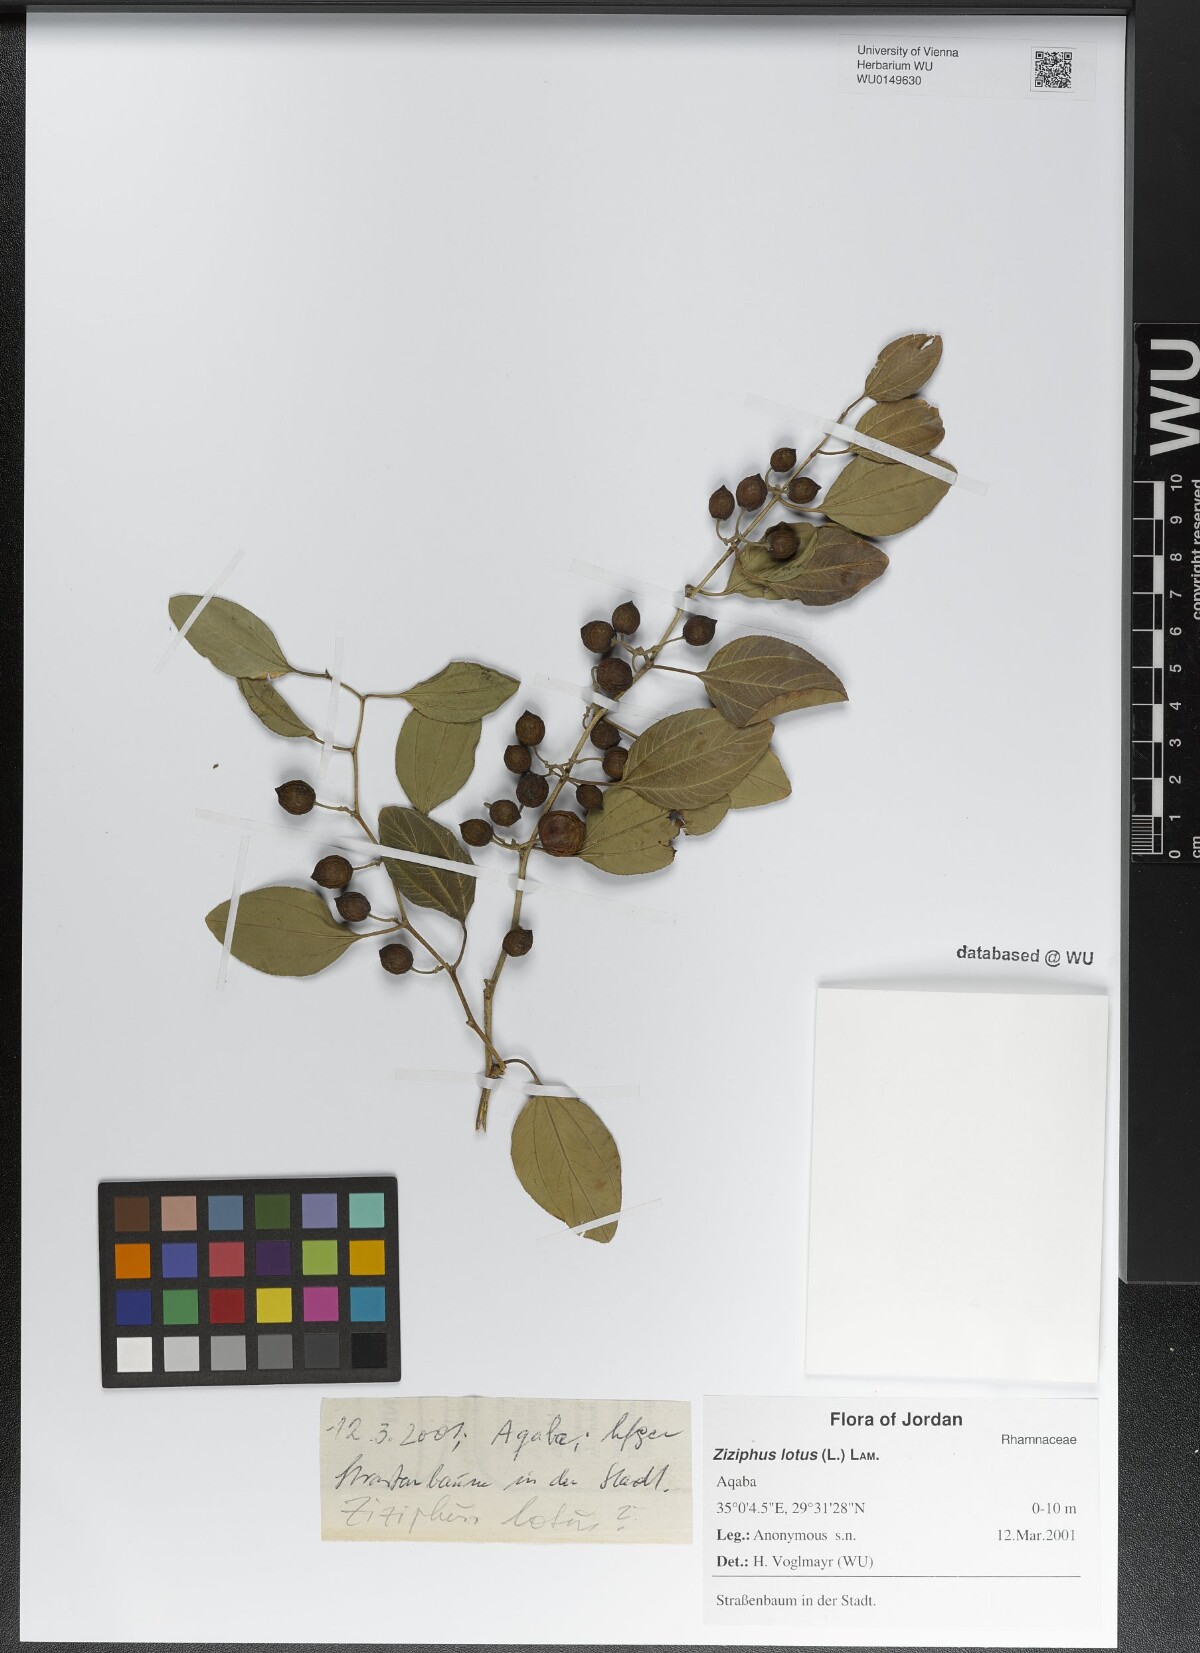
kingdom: Plantae
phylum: Tracheophyta
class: Magnoliopsida
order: Rosales
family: Rhamnaceae
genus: Ziziphus
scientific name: Ziziphus lotus
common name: Lotus
